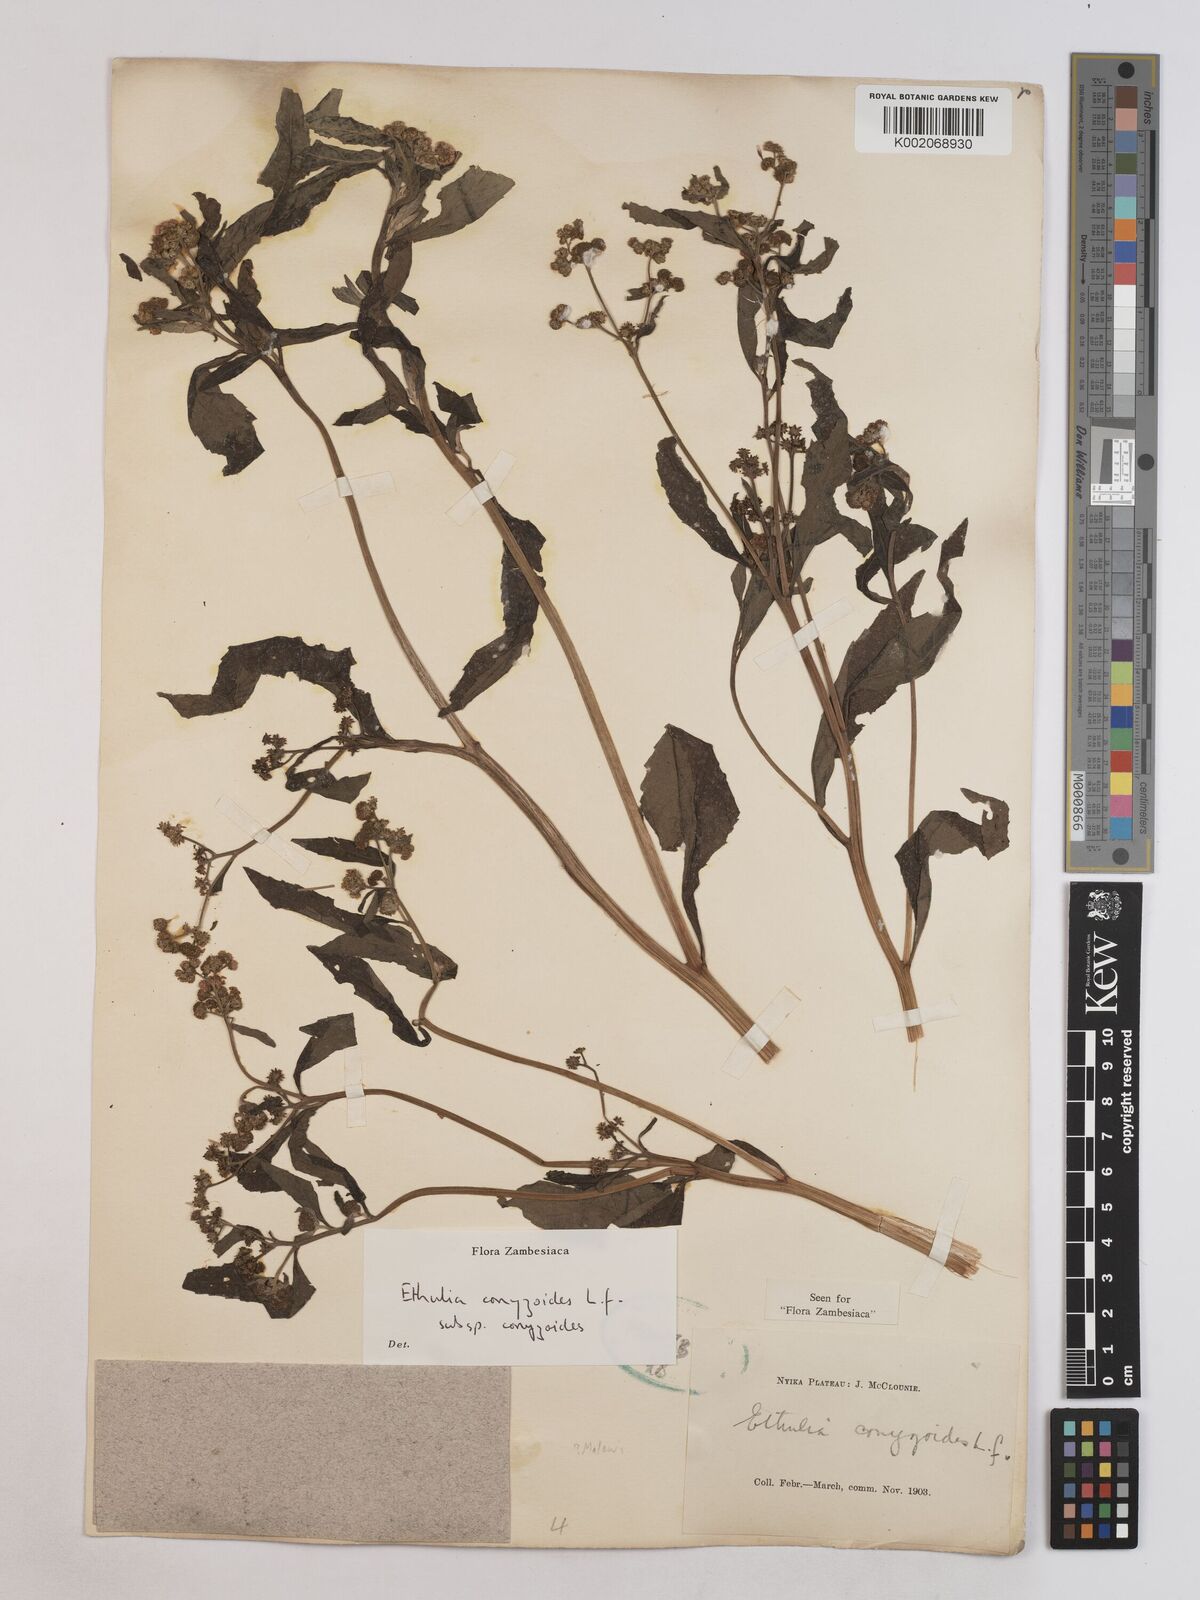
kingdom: Plantae
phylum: Tracheophyta
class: Magnoliopsida
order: Asterales
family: Asteraceae
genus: Ethulia
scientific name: Ethulia conyzoides
